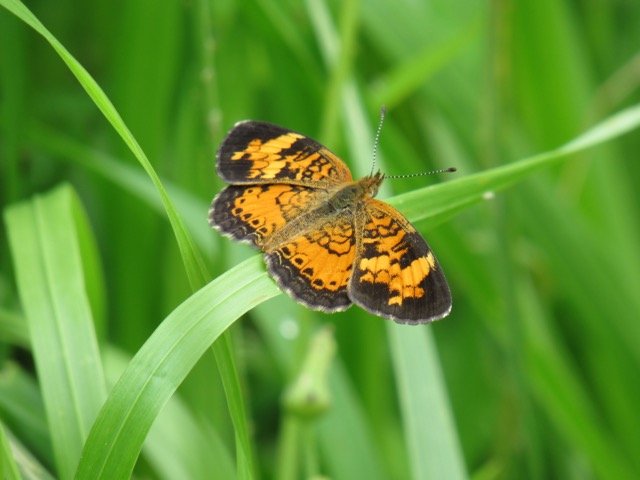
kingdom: Animalia
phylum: Arthropoda
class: Insecta
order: Lepidoptera
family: Nymphalidae
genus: Phyciodes
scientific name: Phyciodes tharos
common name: Pearl Crescent
